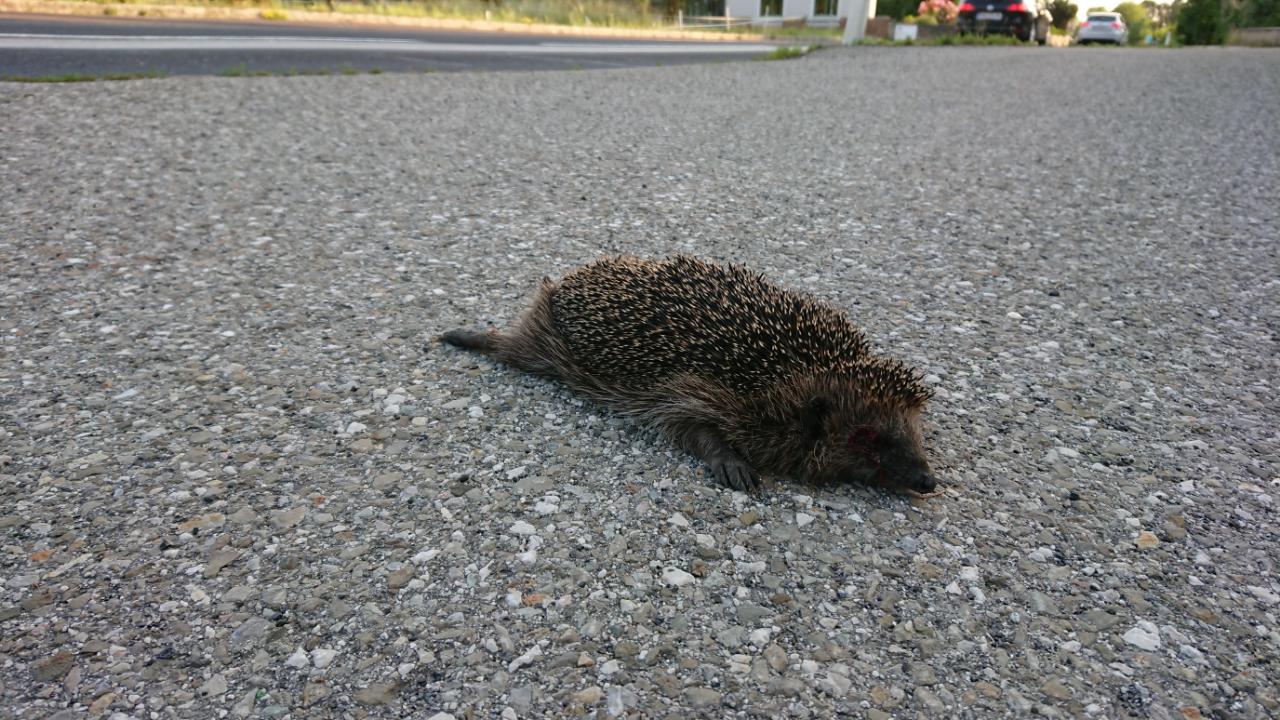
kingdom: Animalia
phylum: Chordata
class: Mammalia
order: Erinaceomorpha
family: Erinaceidae
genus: Erinaceus
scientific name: Erinaceus
